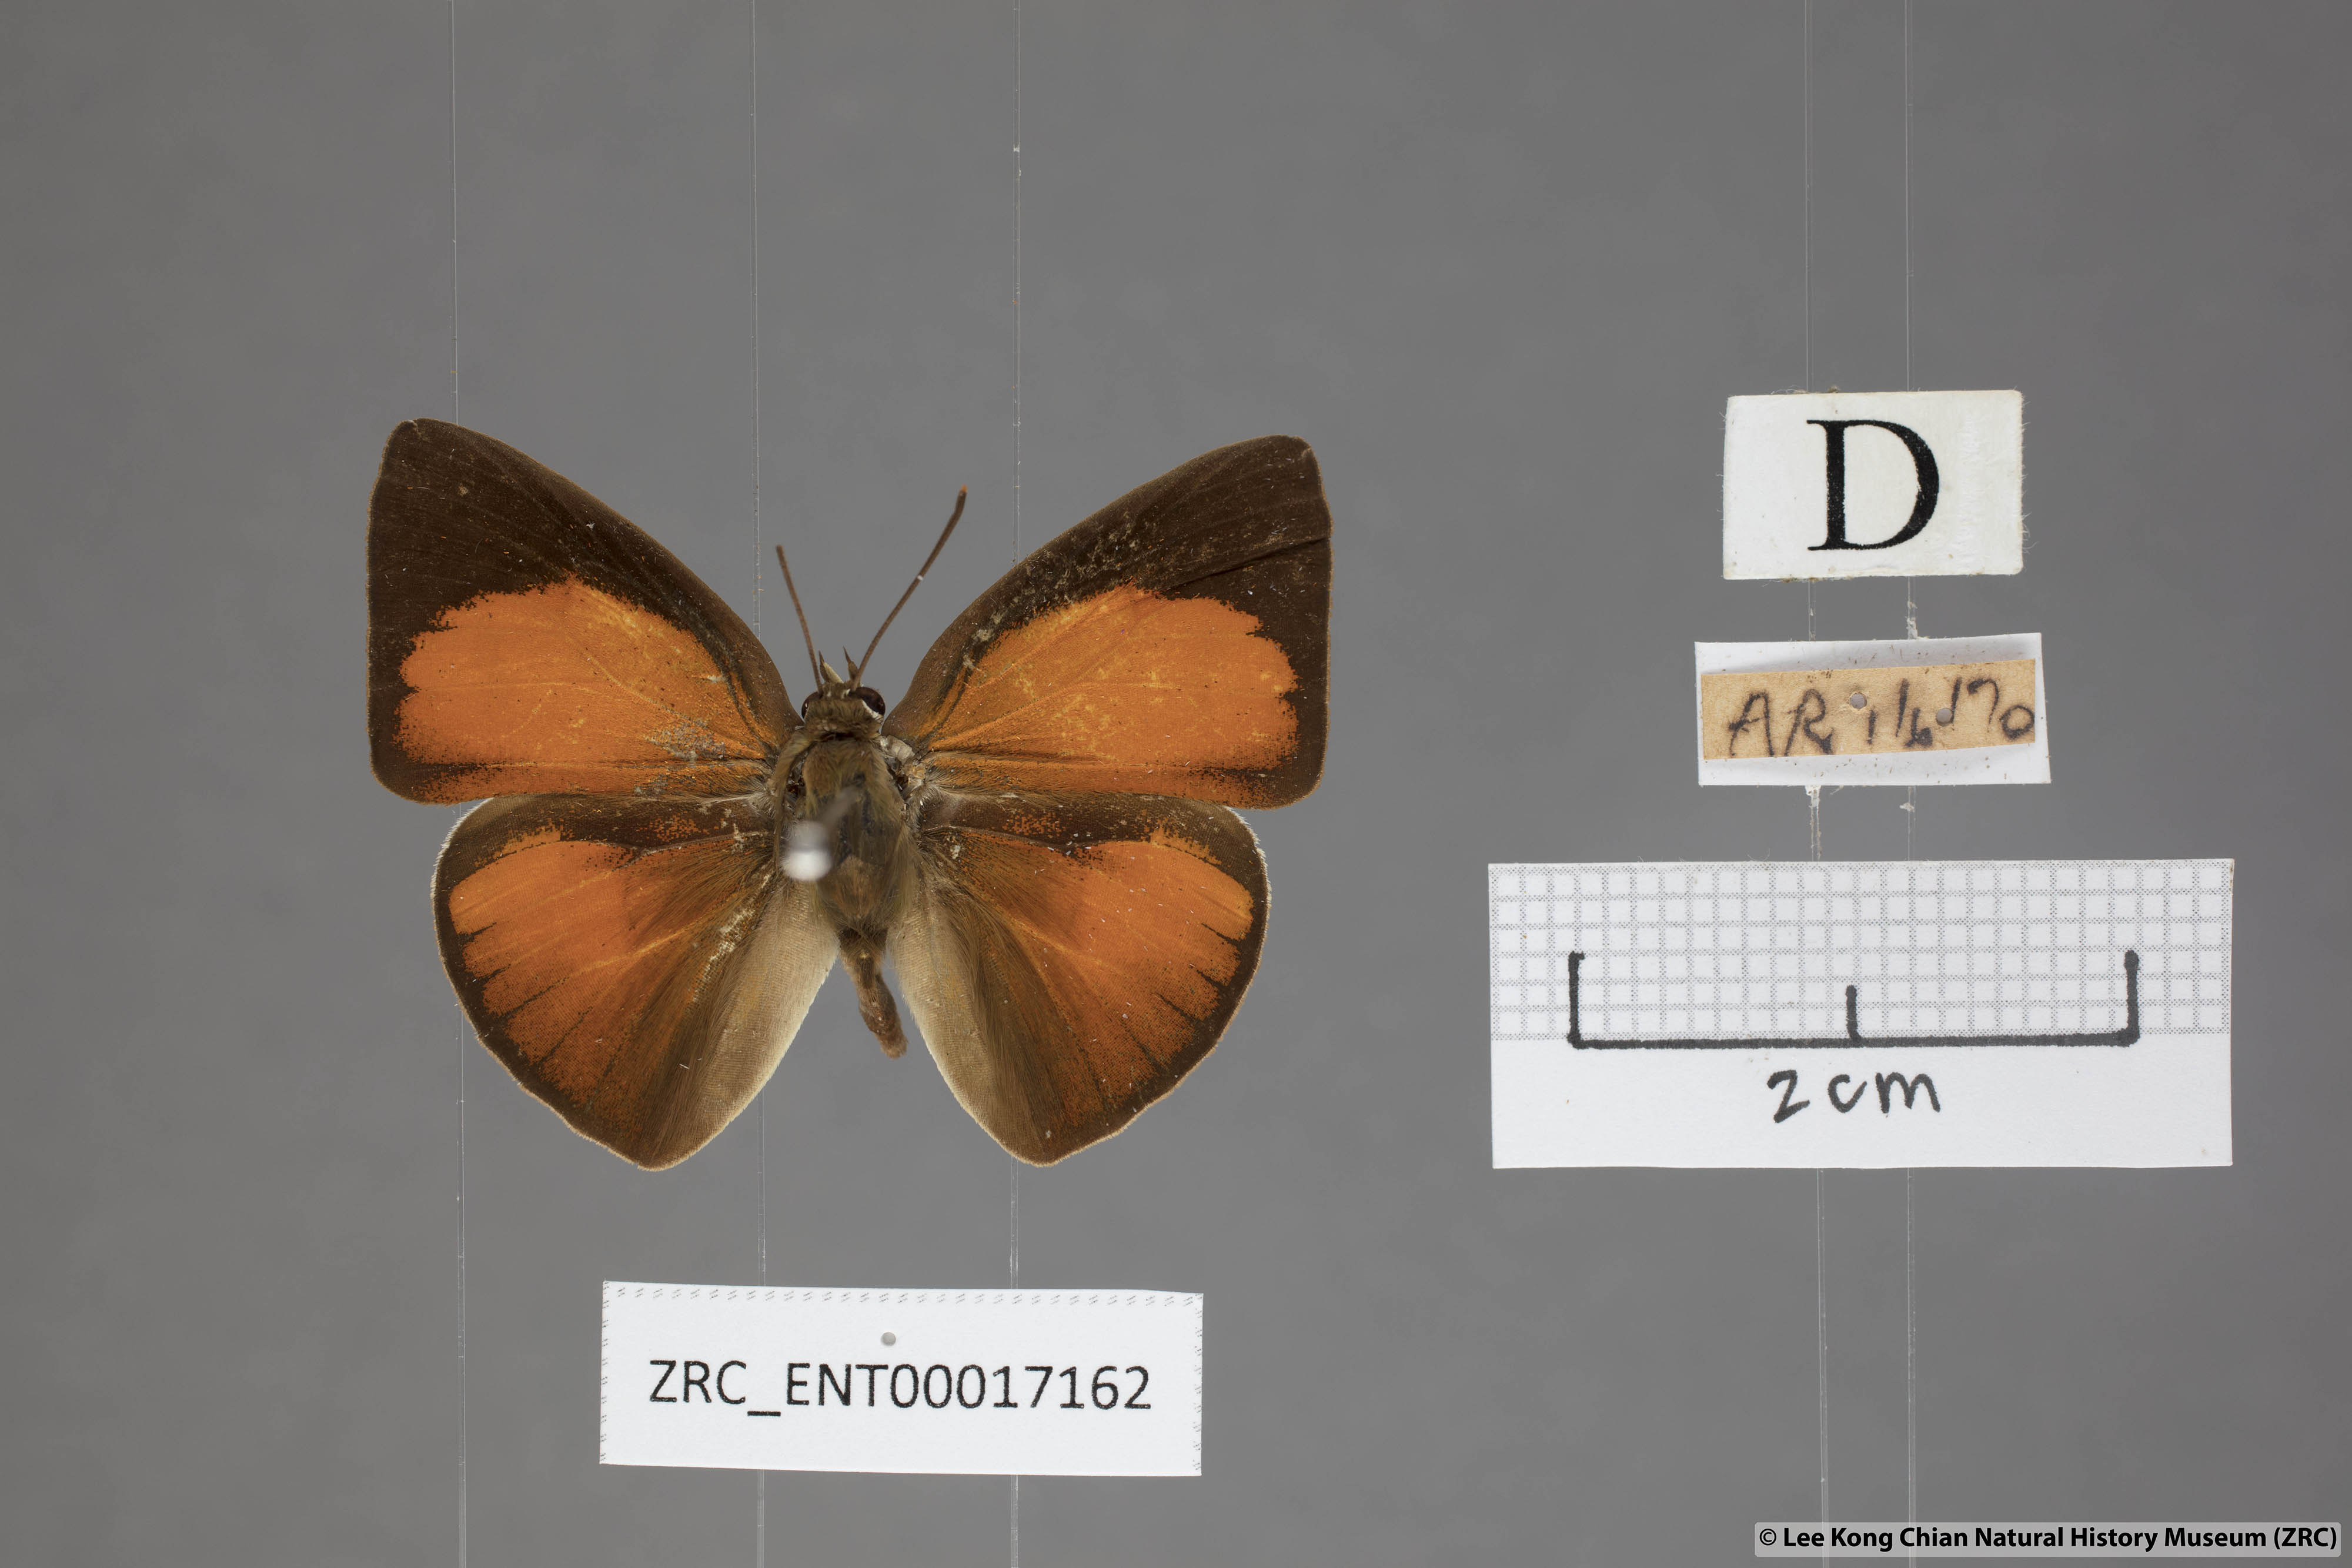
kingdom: Animalia
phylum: Arthropoda
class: Insecta
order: Lepidoptera
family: Lycaenidae
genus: Curetis
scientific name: Curetis sperthis
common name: Rounded sunbeam
